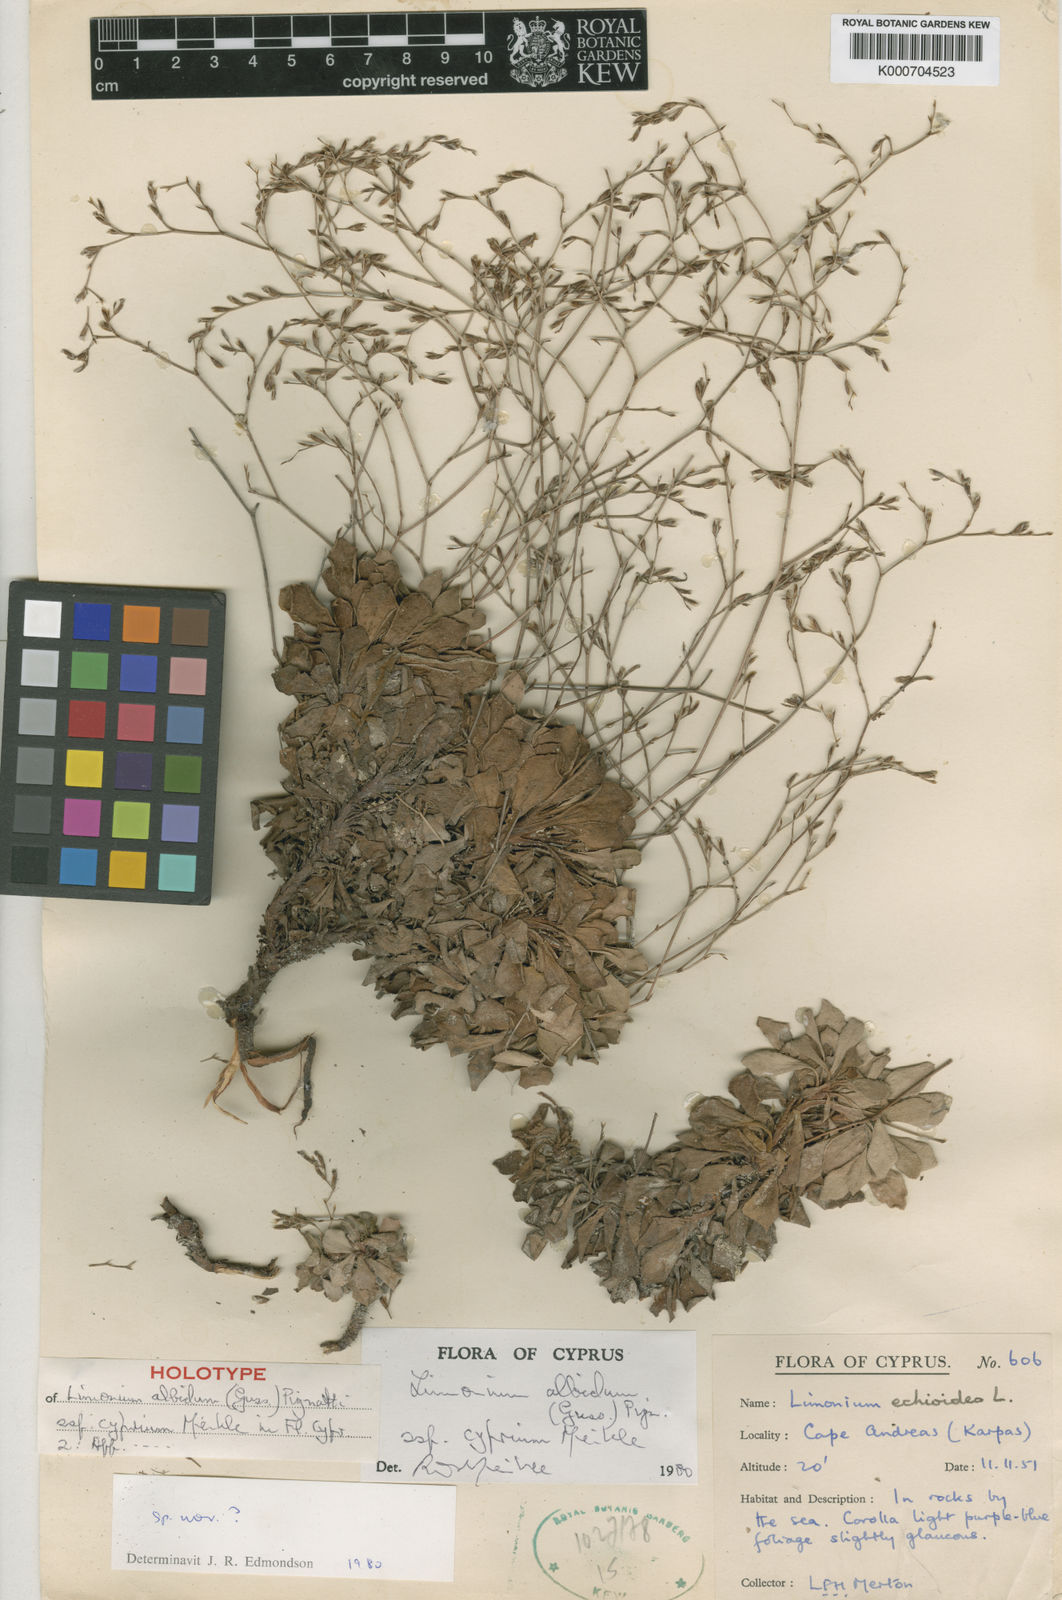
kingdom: Plantae
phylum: Tracheophyta
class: Magnoliopsida
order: Caryophyllales
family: Plumbaginaceae
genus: Limonium
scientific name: Limonium albidum
